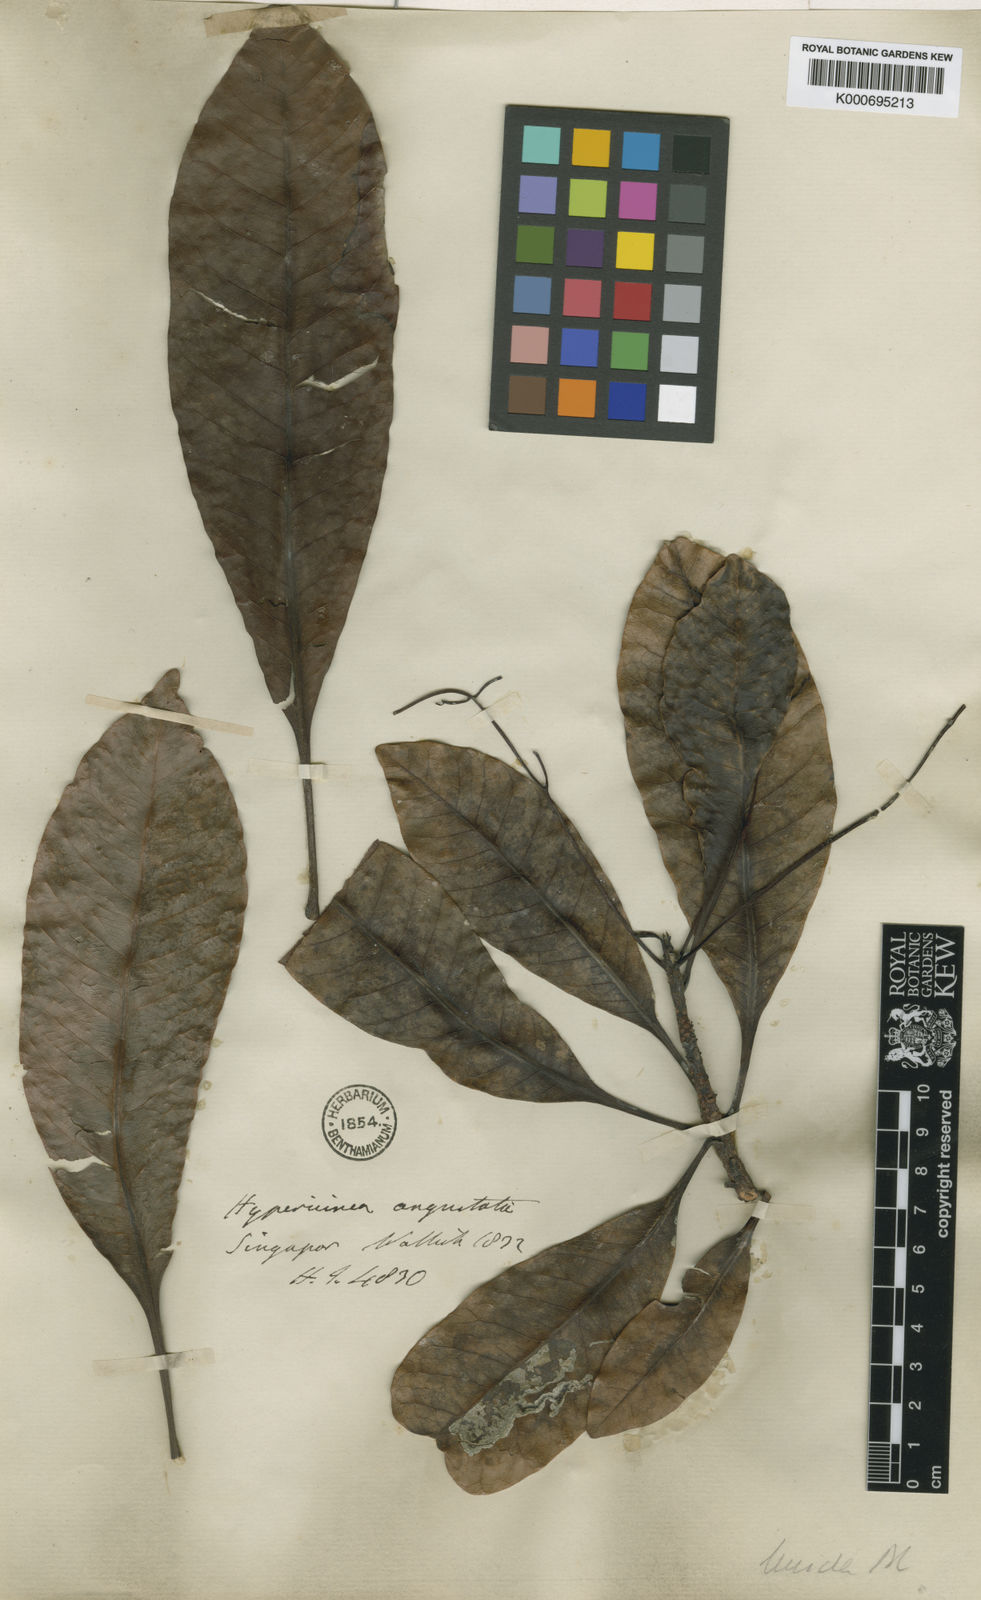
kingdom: Plantae
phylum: Tracheophyta
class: Magnoliopsida
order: Sapindales
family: Anacardiaceae
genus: Buchanania
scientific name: Buchanania sessifolia
